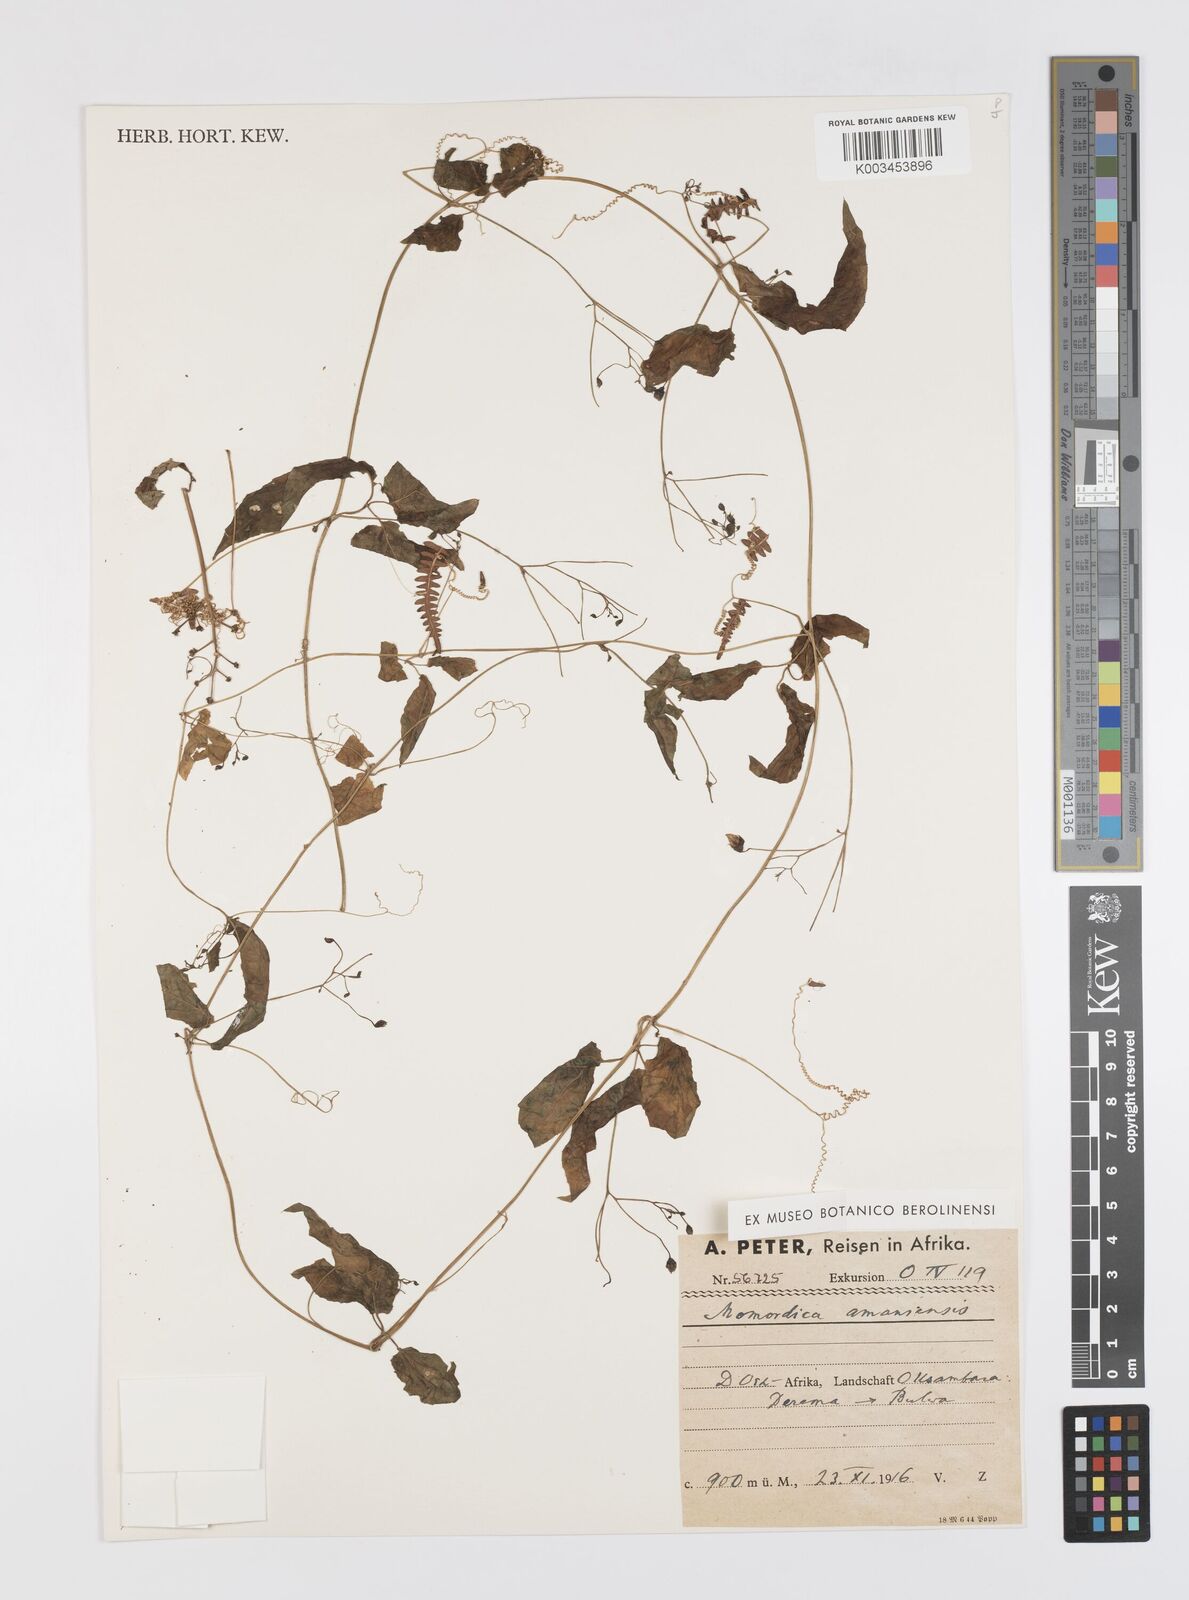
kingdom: Plantae
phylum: Tracheophyta
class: Magnoliopsida
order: Cucurbitales
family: Cucurbitaceae
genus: Momordica
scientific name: Momordica anigosantha
